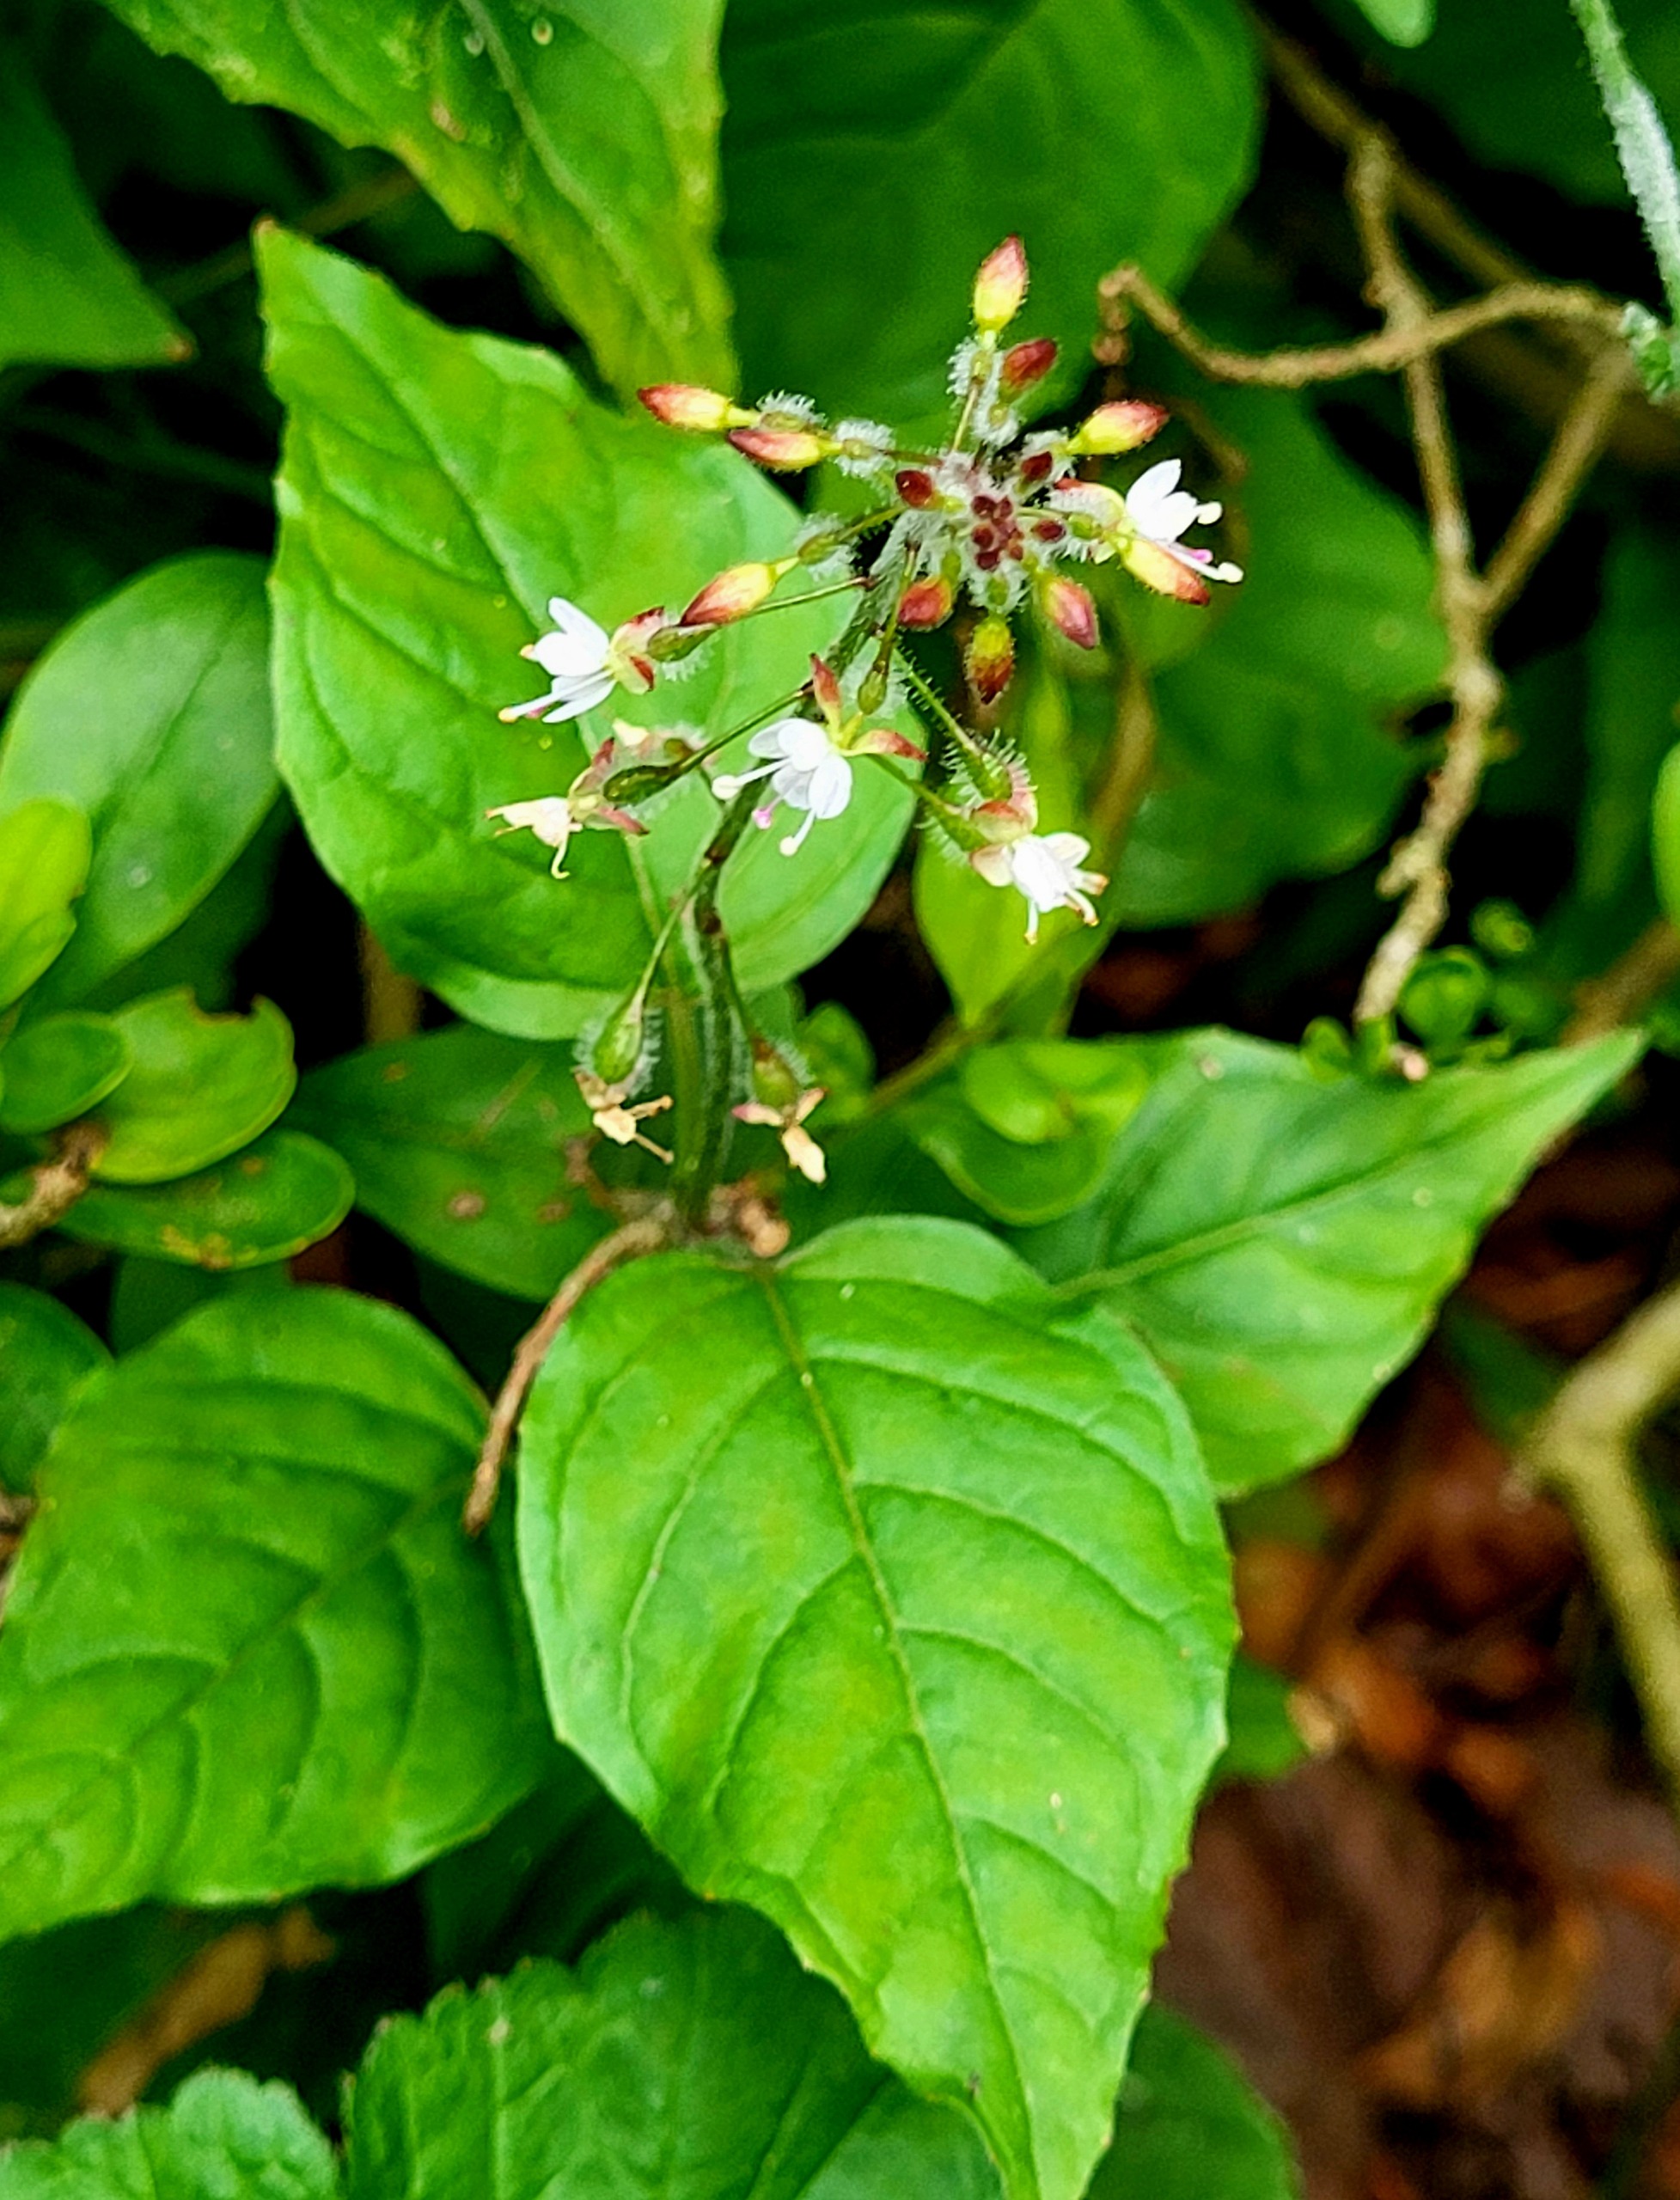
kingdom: Plantae
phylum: Tracheophyta
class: Magnoliopsida
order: Myrtales
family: Onagraceae
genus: Circaea
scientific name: Circaea lutetiana
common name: Dunet steffensurt
